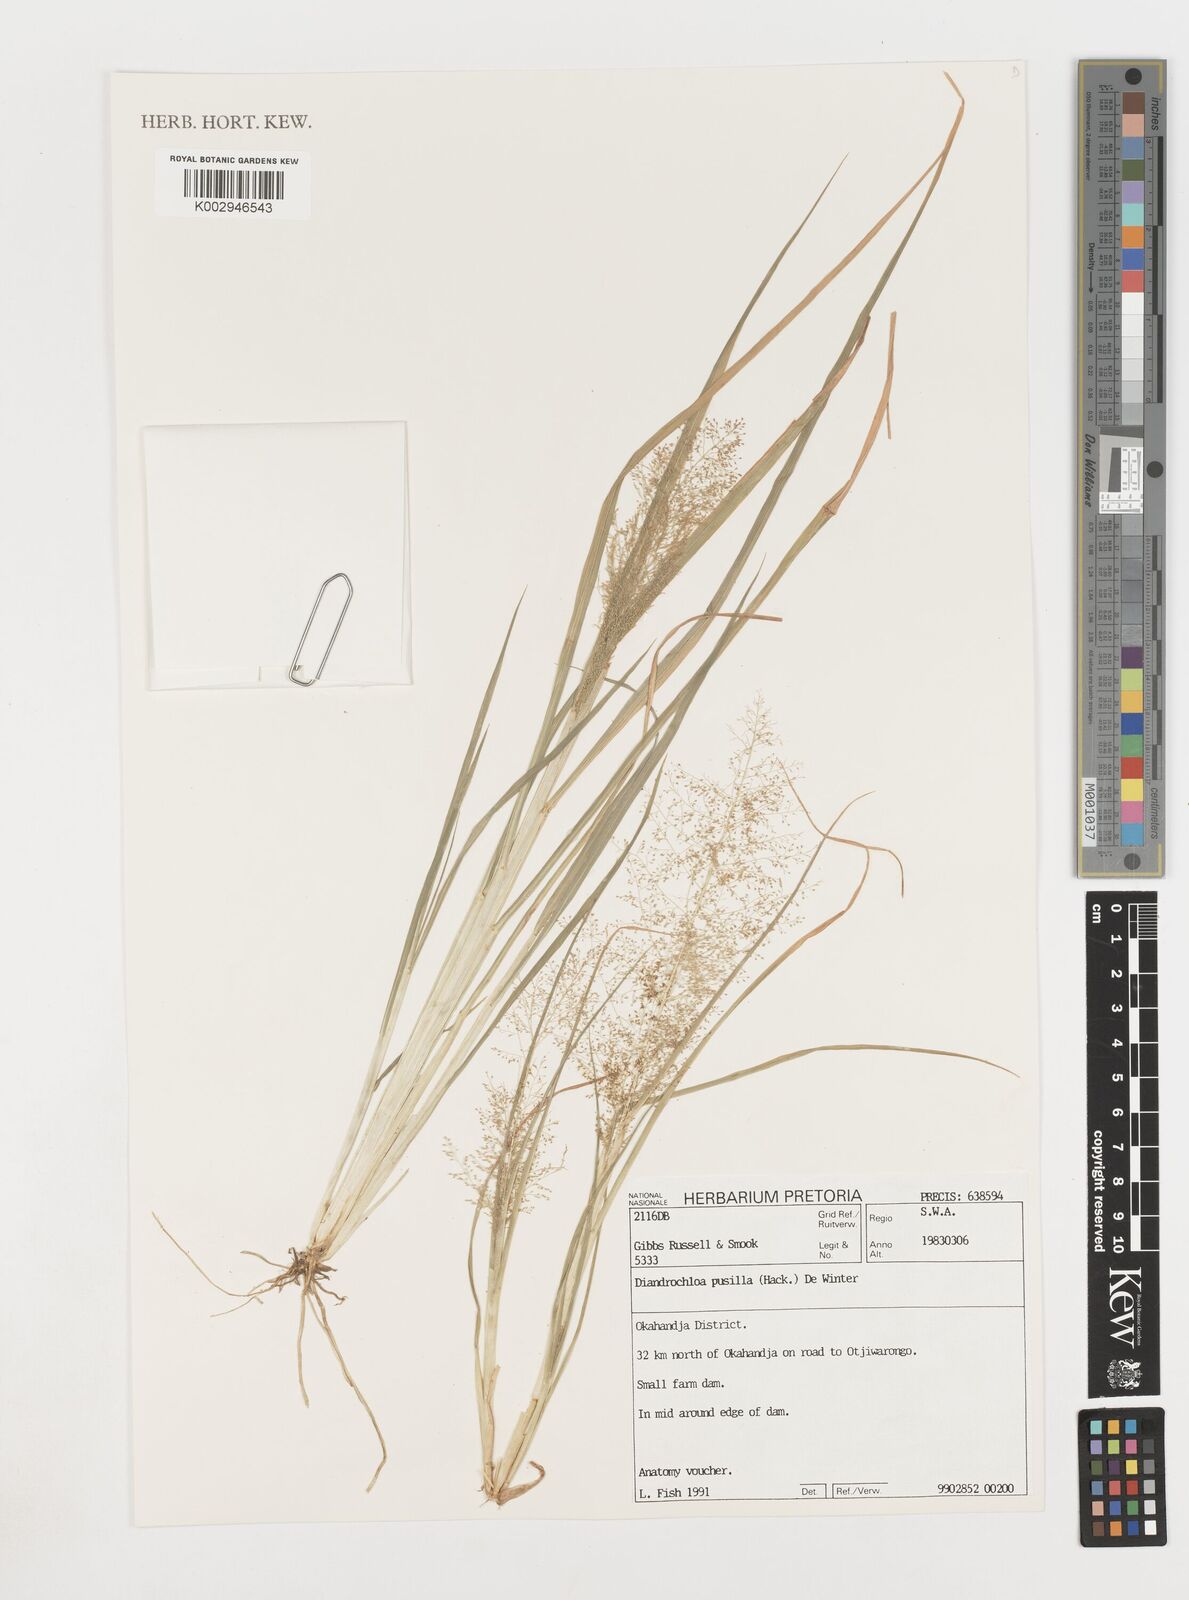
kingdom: Plantae
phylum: Tracheophyta
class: Liliopsida
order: Poales
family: Poaceae
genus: Eragrostis
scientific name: Eragrostis pusilla
